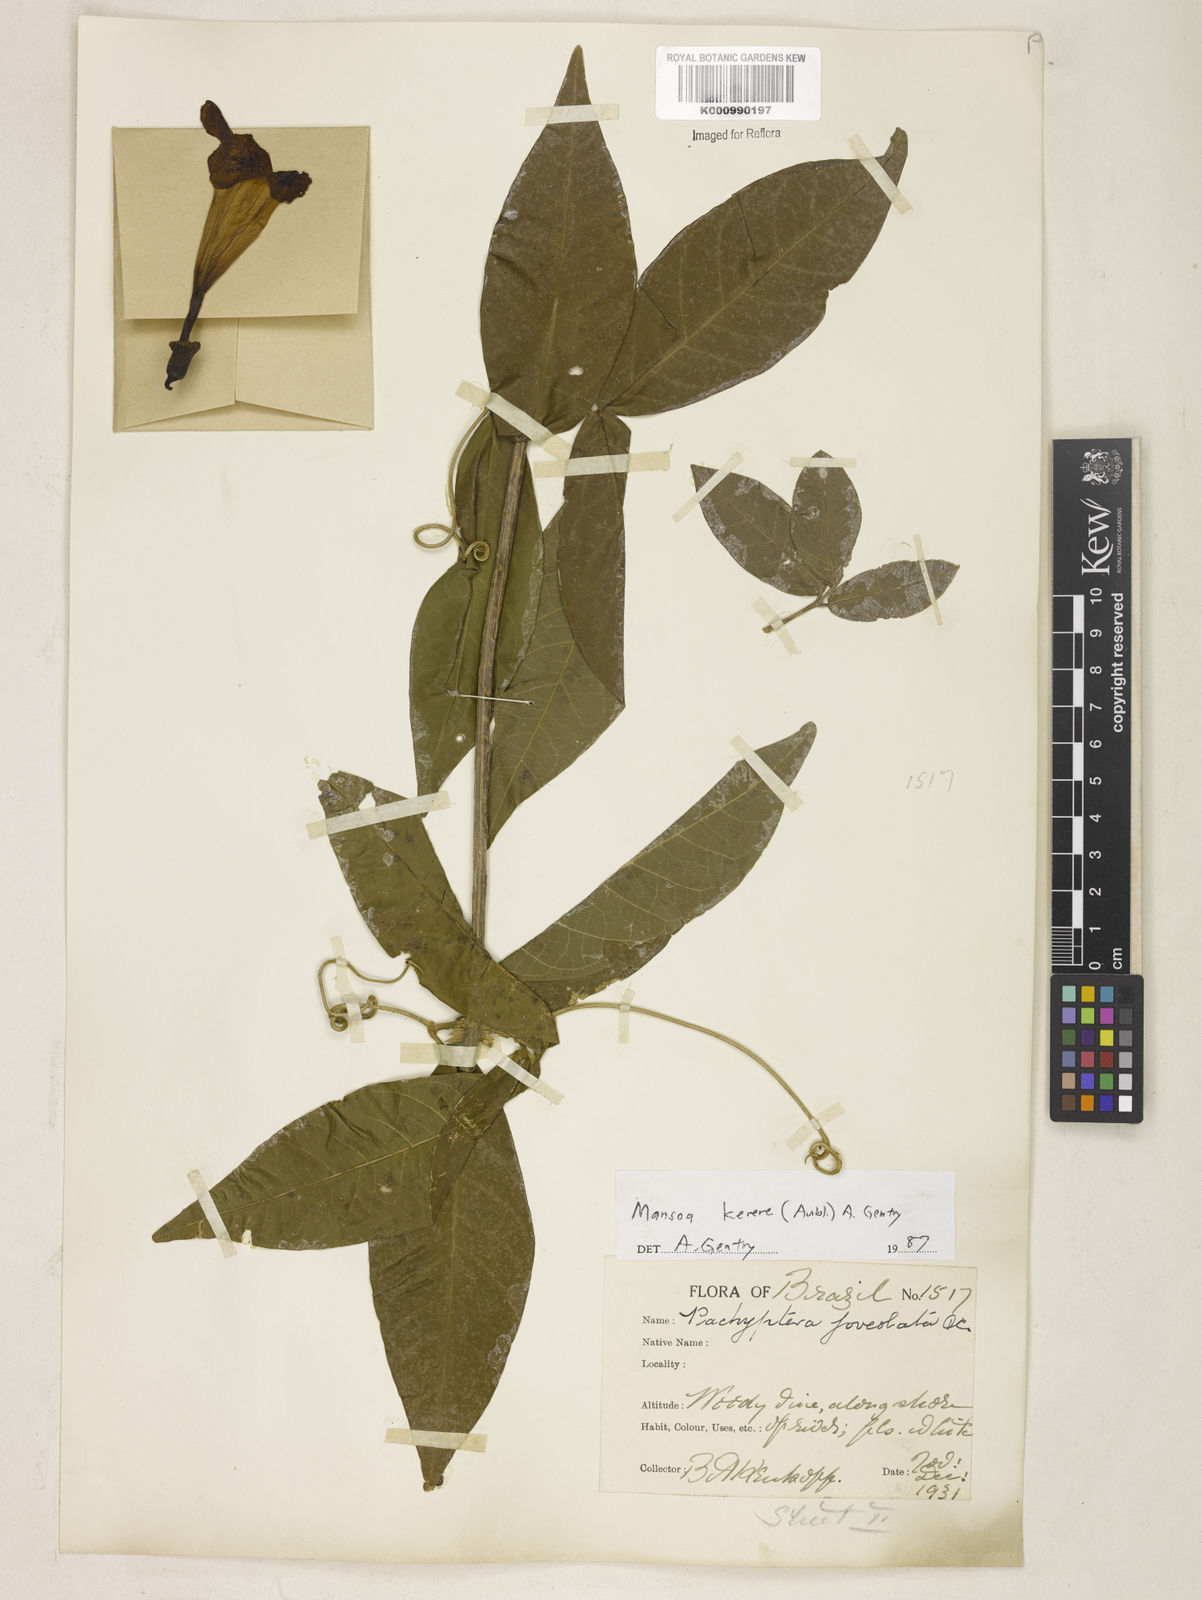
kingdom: Plantae
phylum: Tracheophyta
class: Magnoliopsida
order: Lamiales
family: Bignoniaceae
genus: Pachyptera
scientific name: Pachyptera kerere
